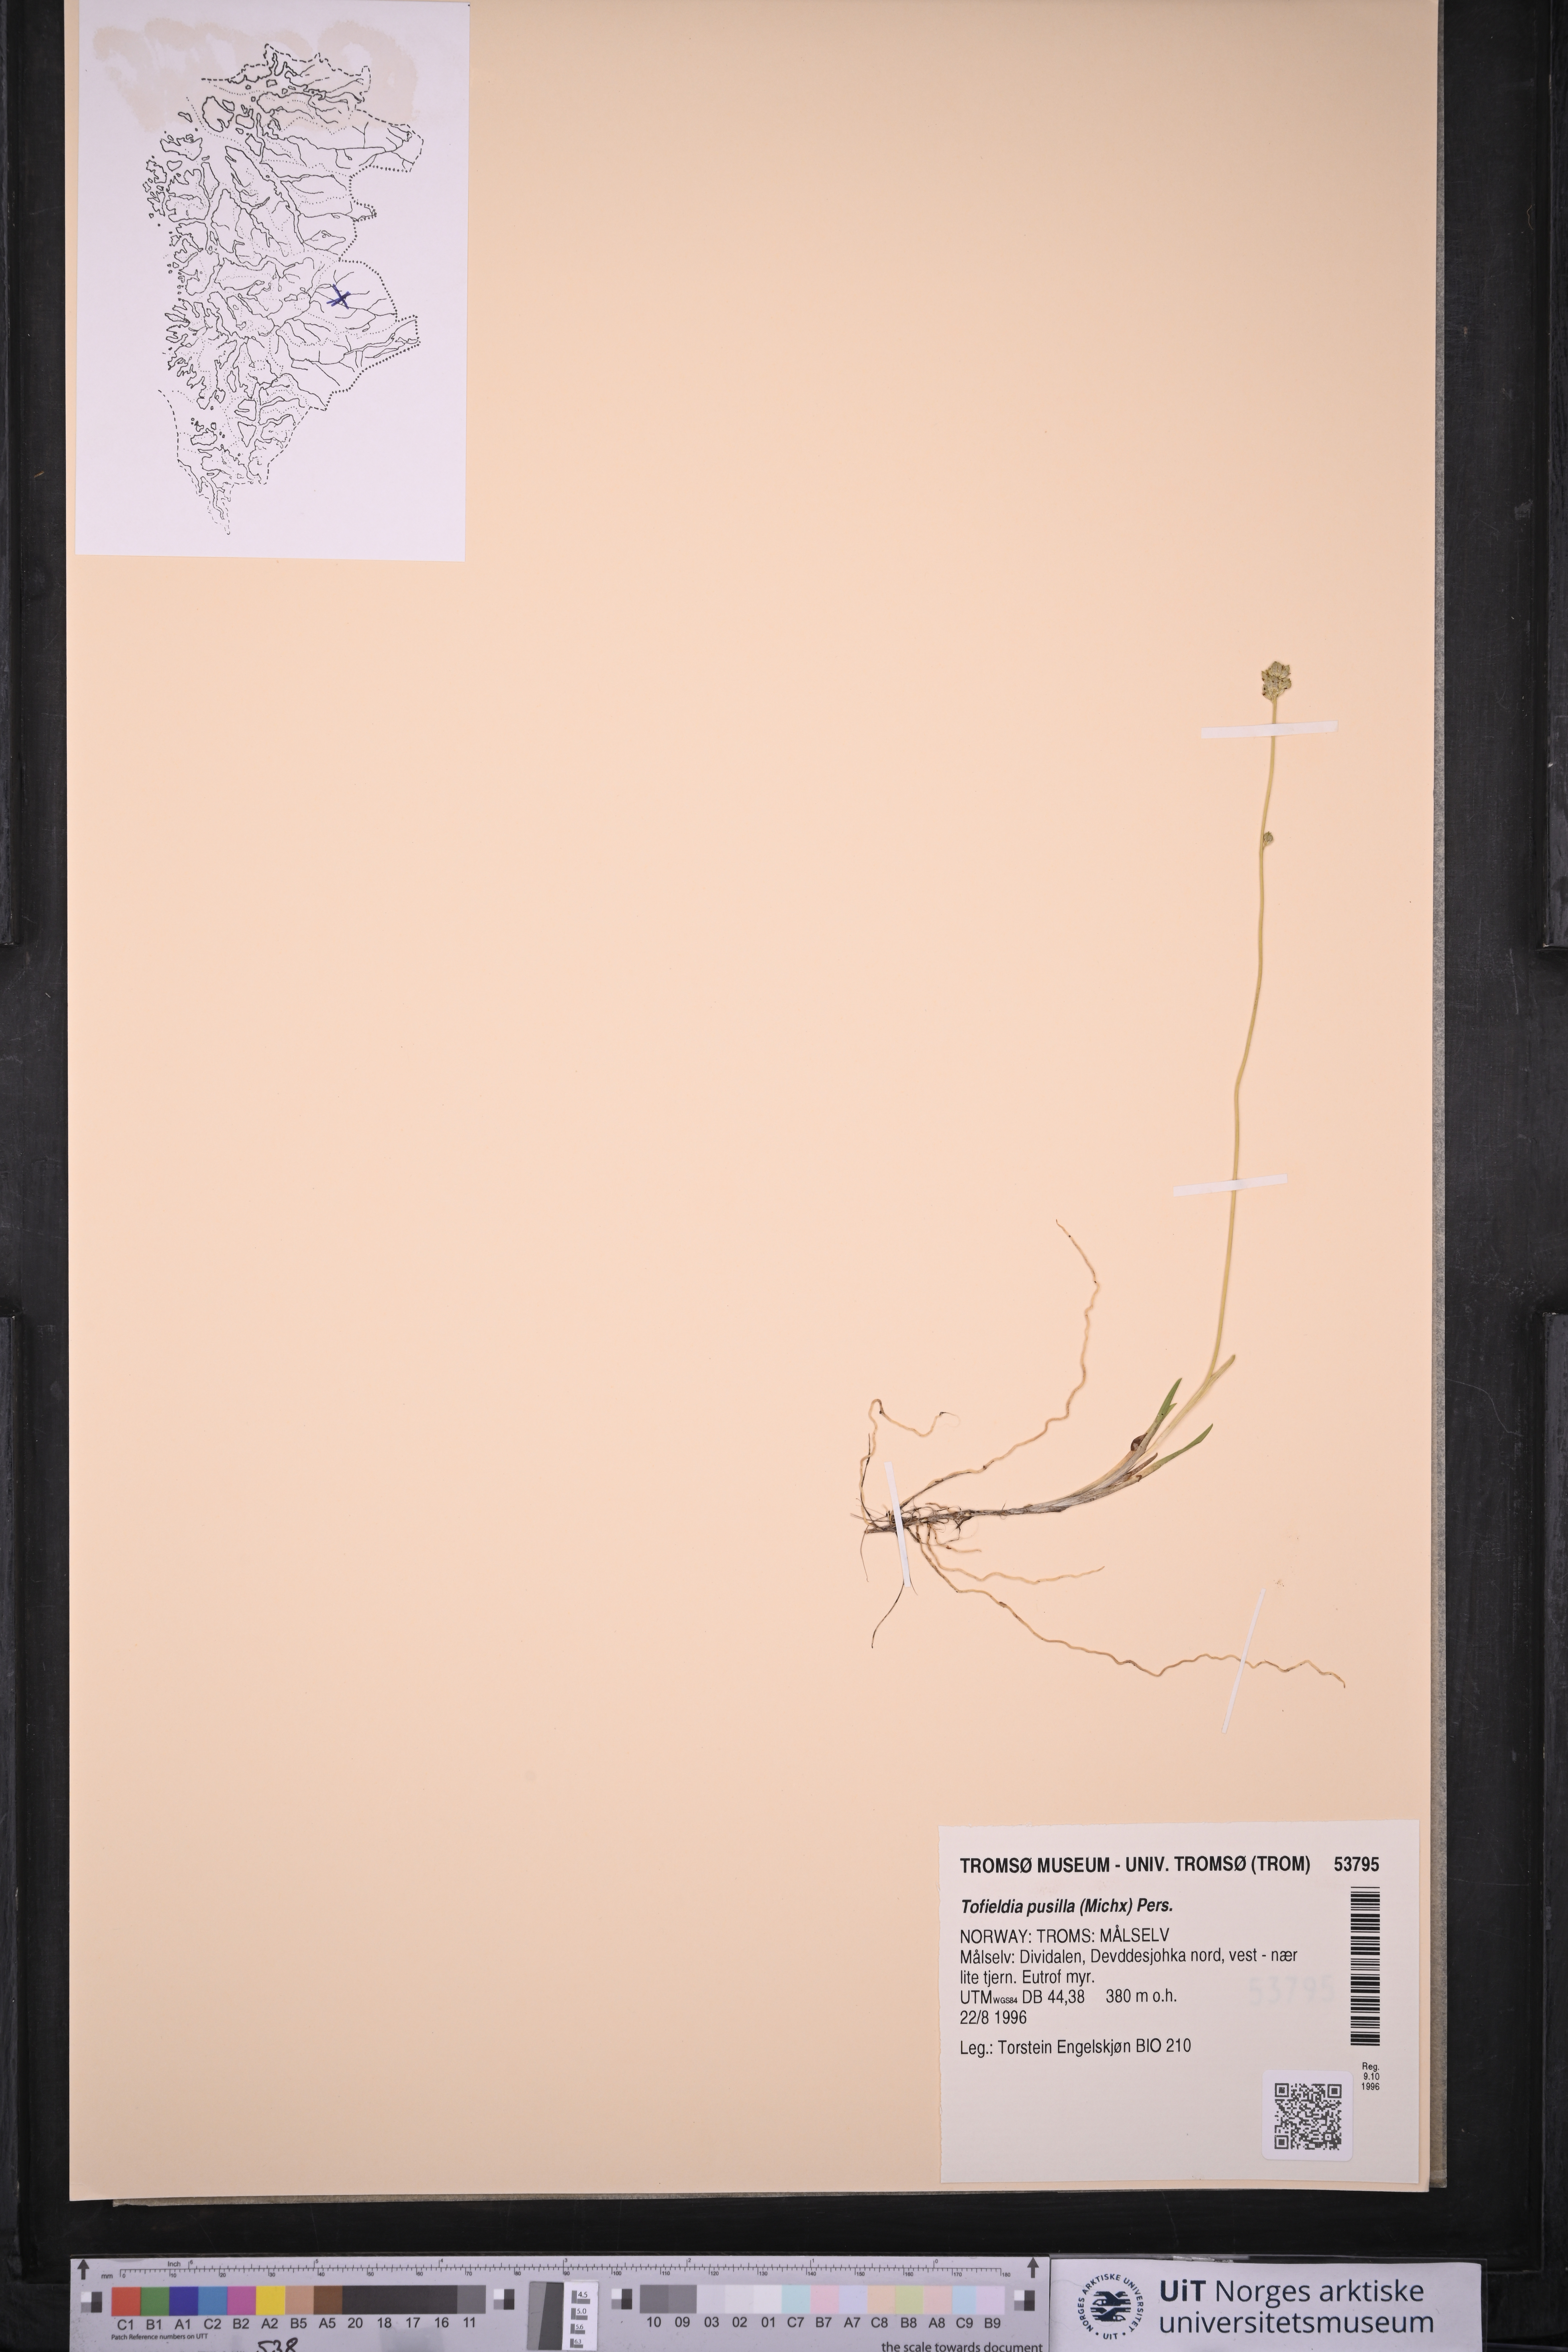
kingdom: Plantae
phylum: Tracheophyta
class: Liliopsida
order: Alismatales
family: Tofieldiaceae
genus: Tofieldia
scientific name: Tofieldia pusilla
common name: Scottish false asphodel
